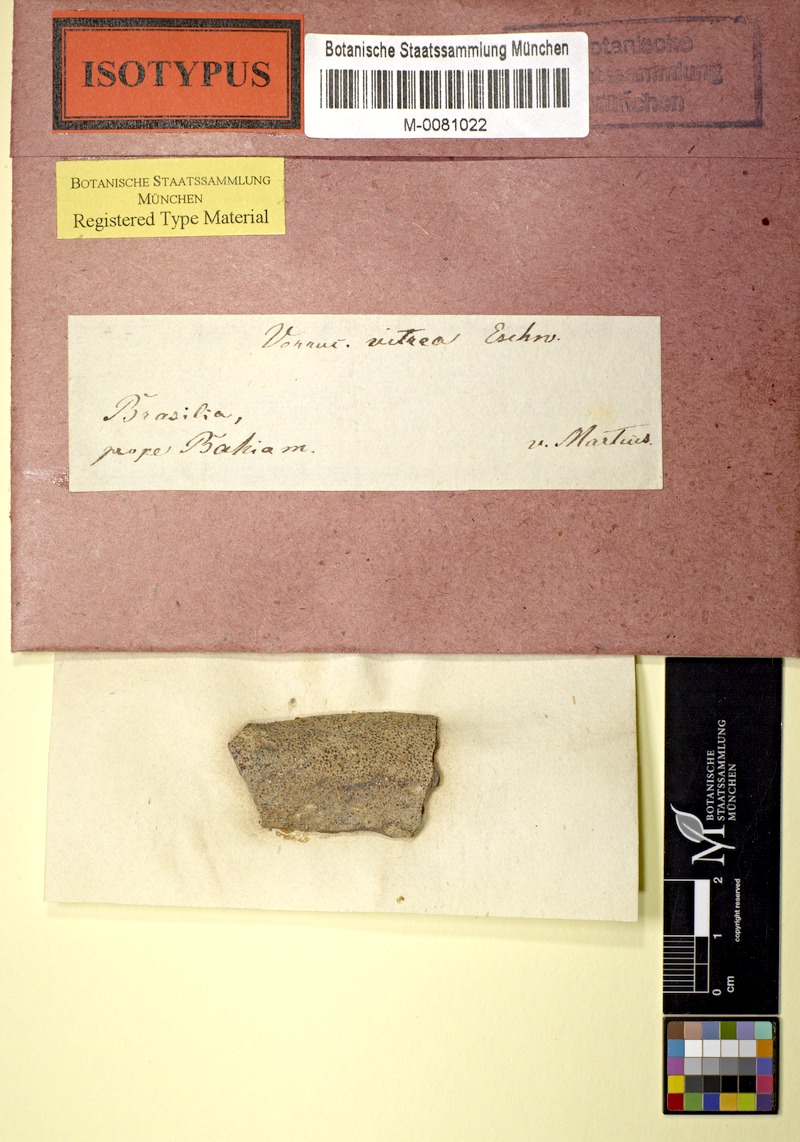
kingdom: Fungi
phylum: Ascomycota
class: Eurotiomycetes
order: Pyrenulales
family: Pyrenulaceae
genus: Pyrenula
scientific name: Pyrenula
